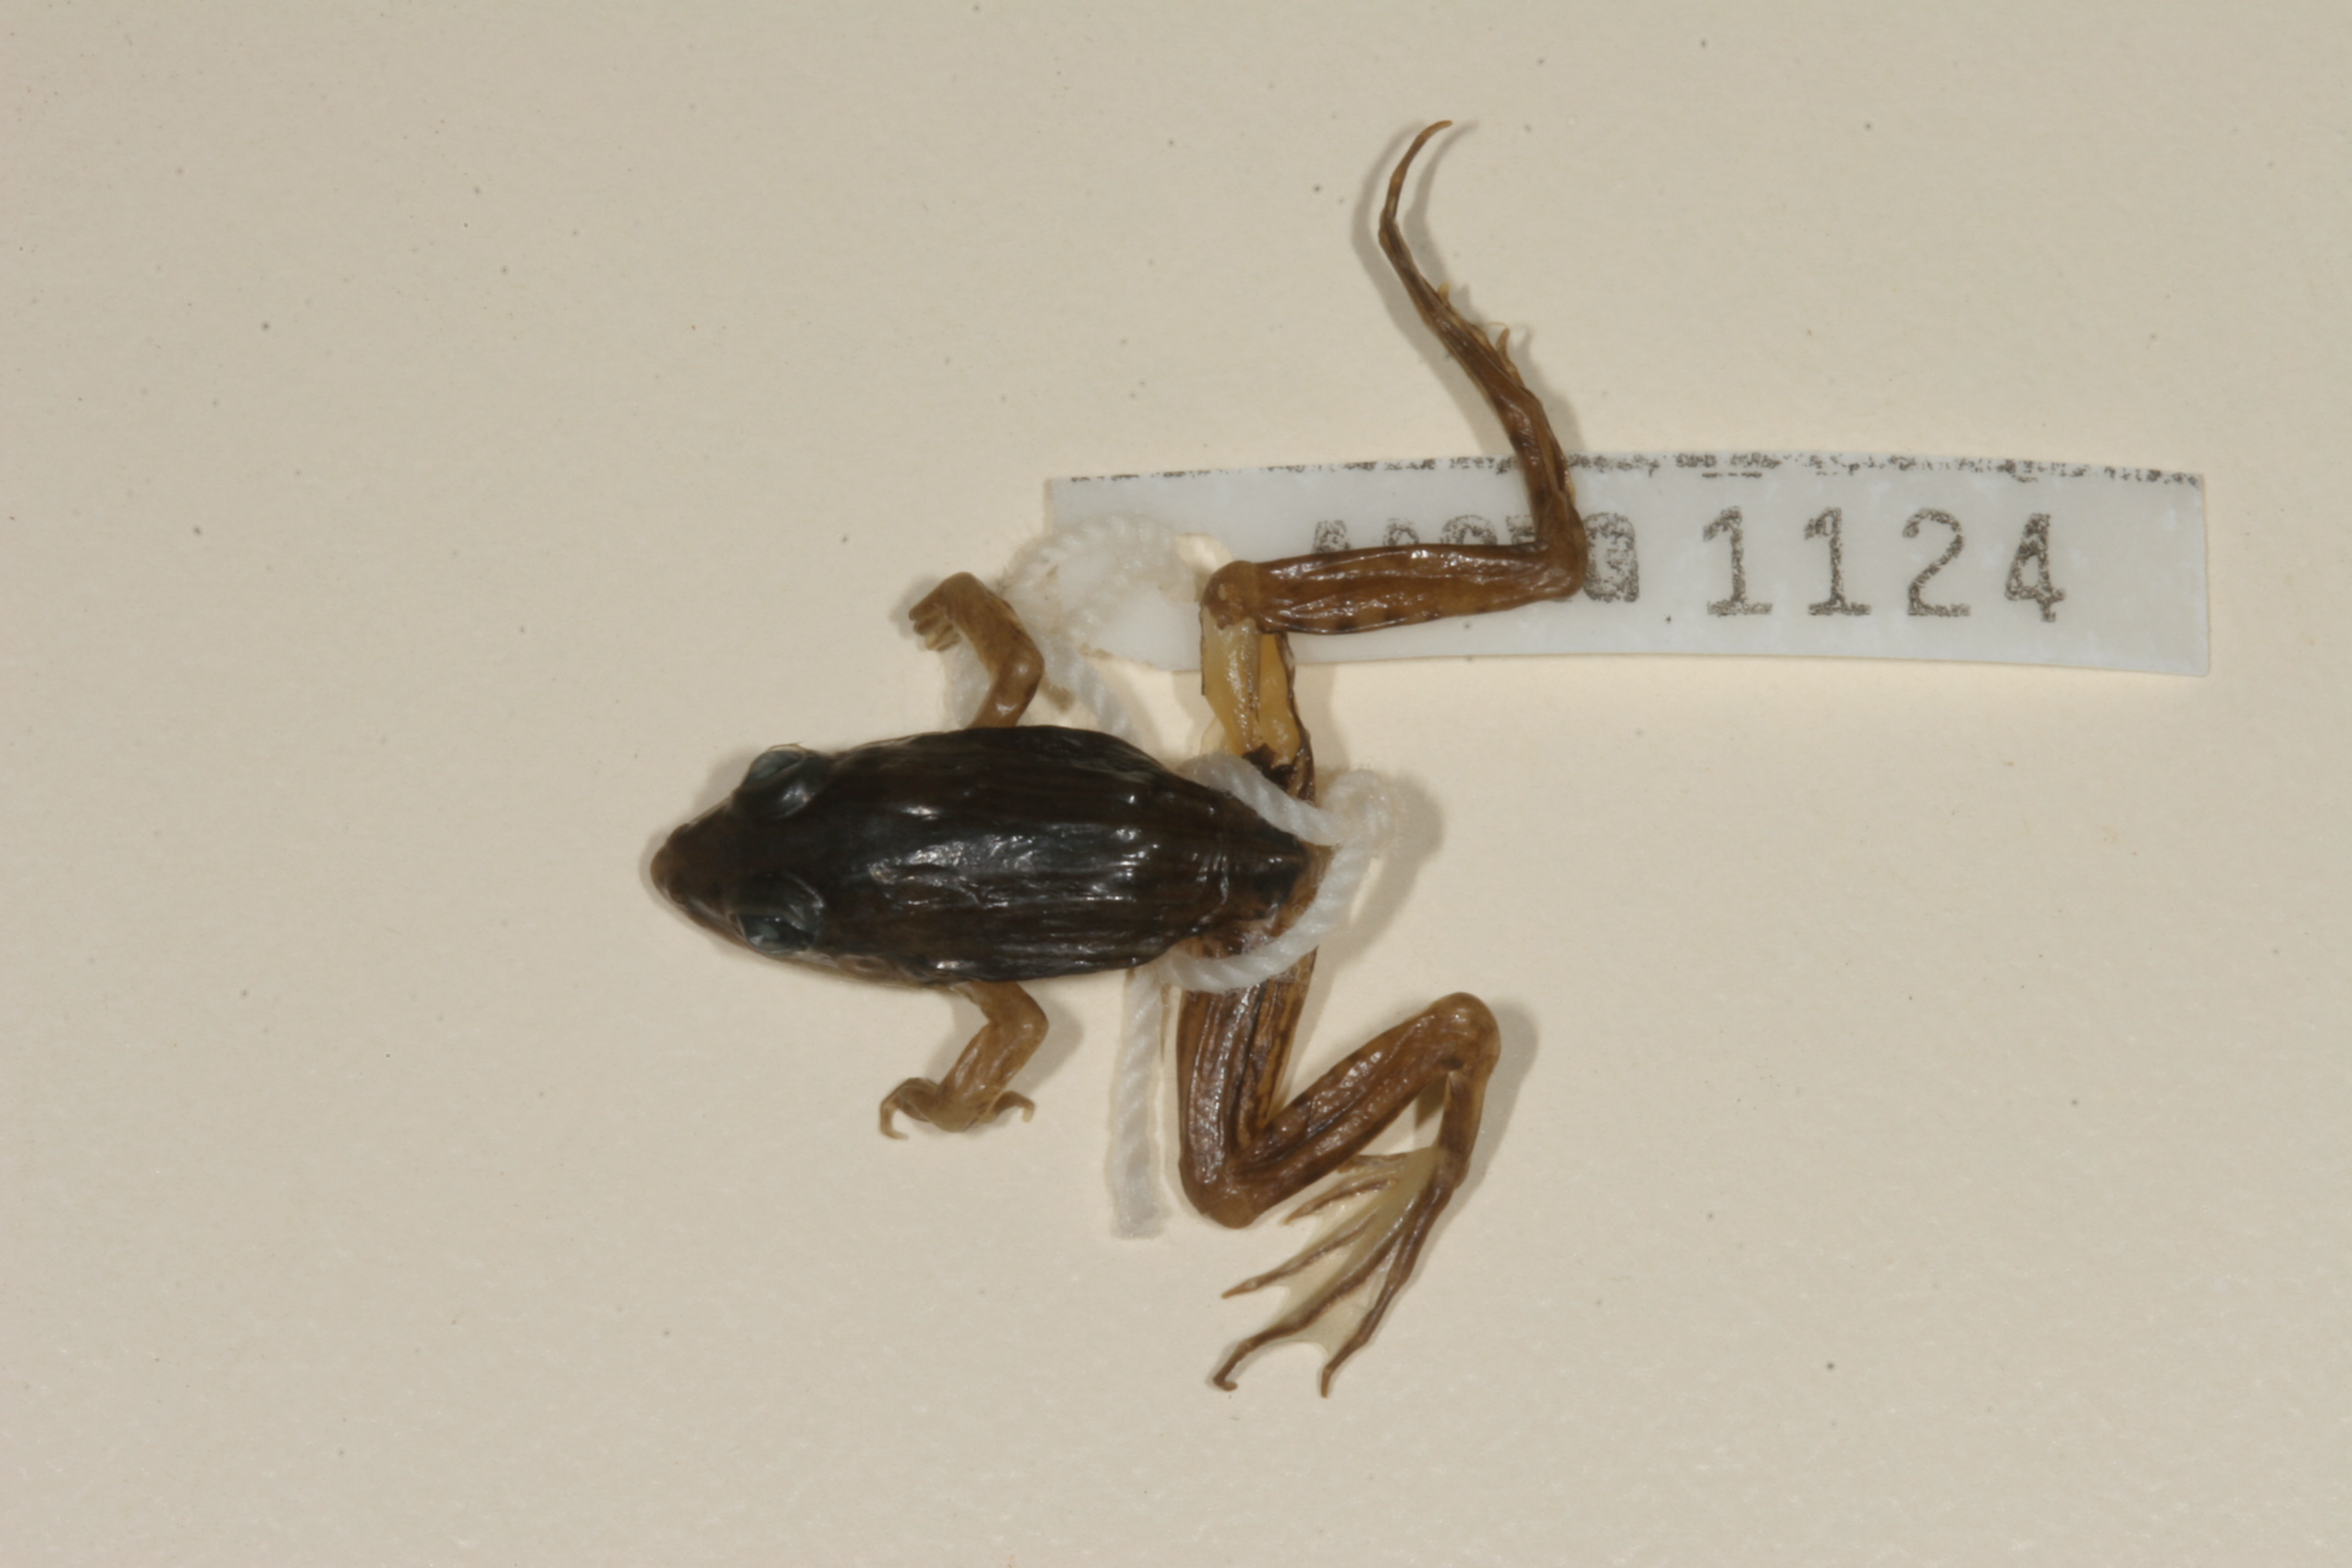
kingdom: Animalia
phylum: Chordata
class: Amphibia
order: Anura
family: Ptychadenidae
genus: Ptychadena
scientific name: Ptychadena taenioscelis
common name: Lukula grassland frog
